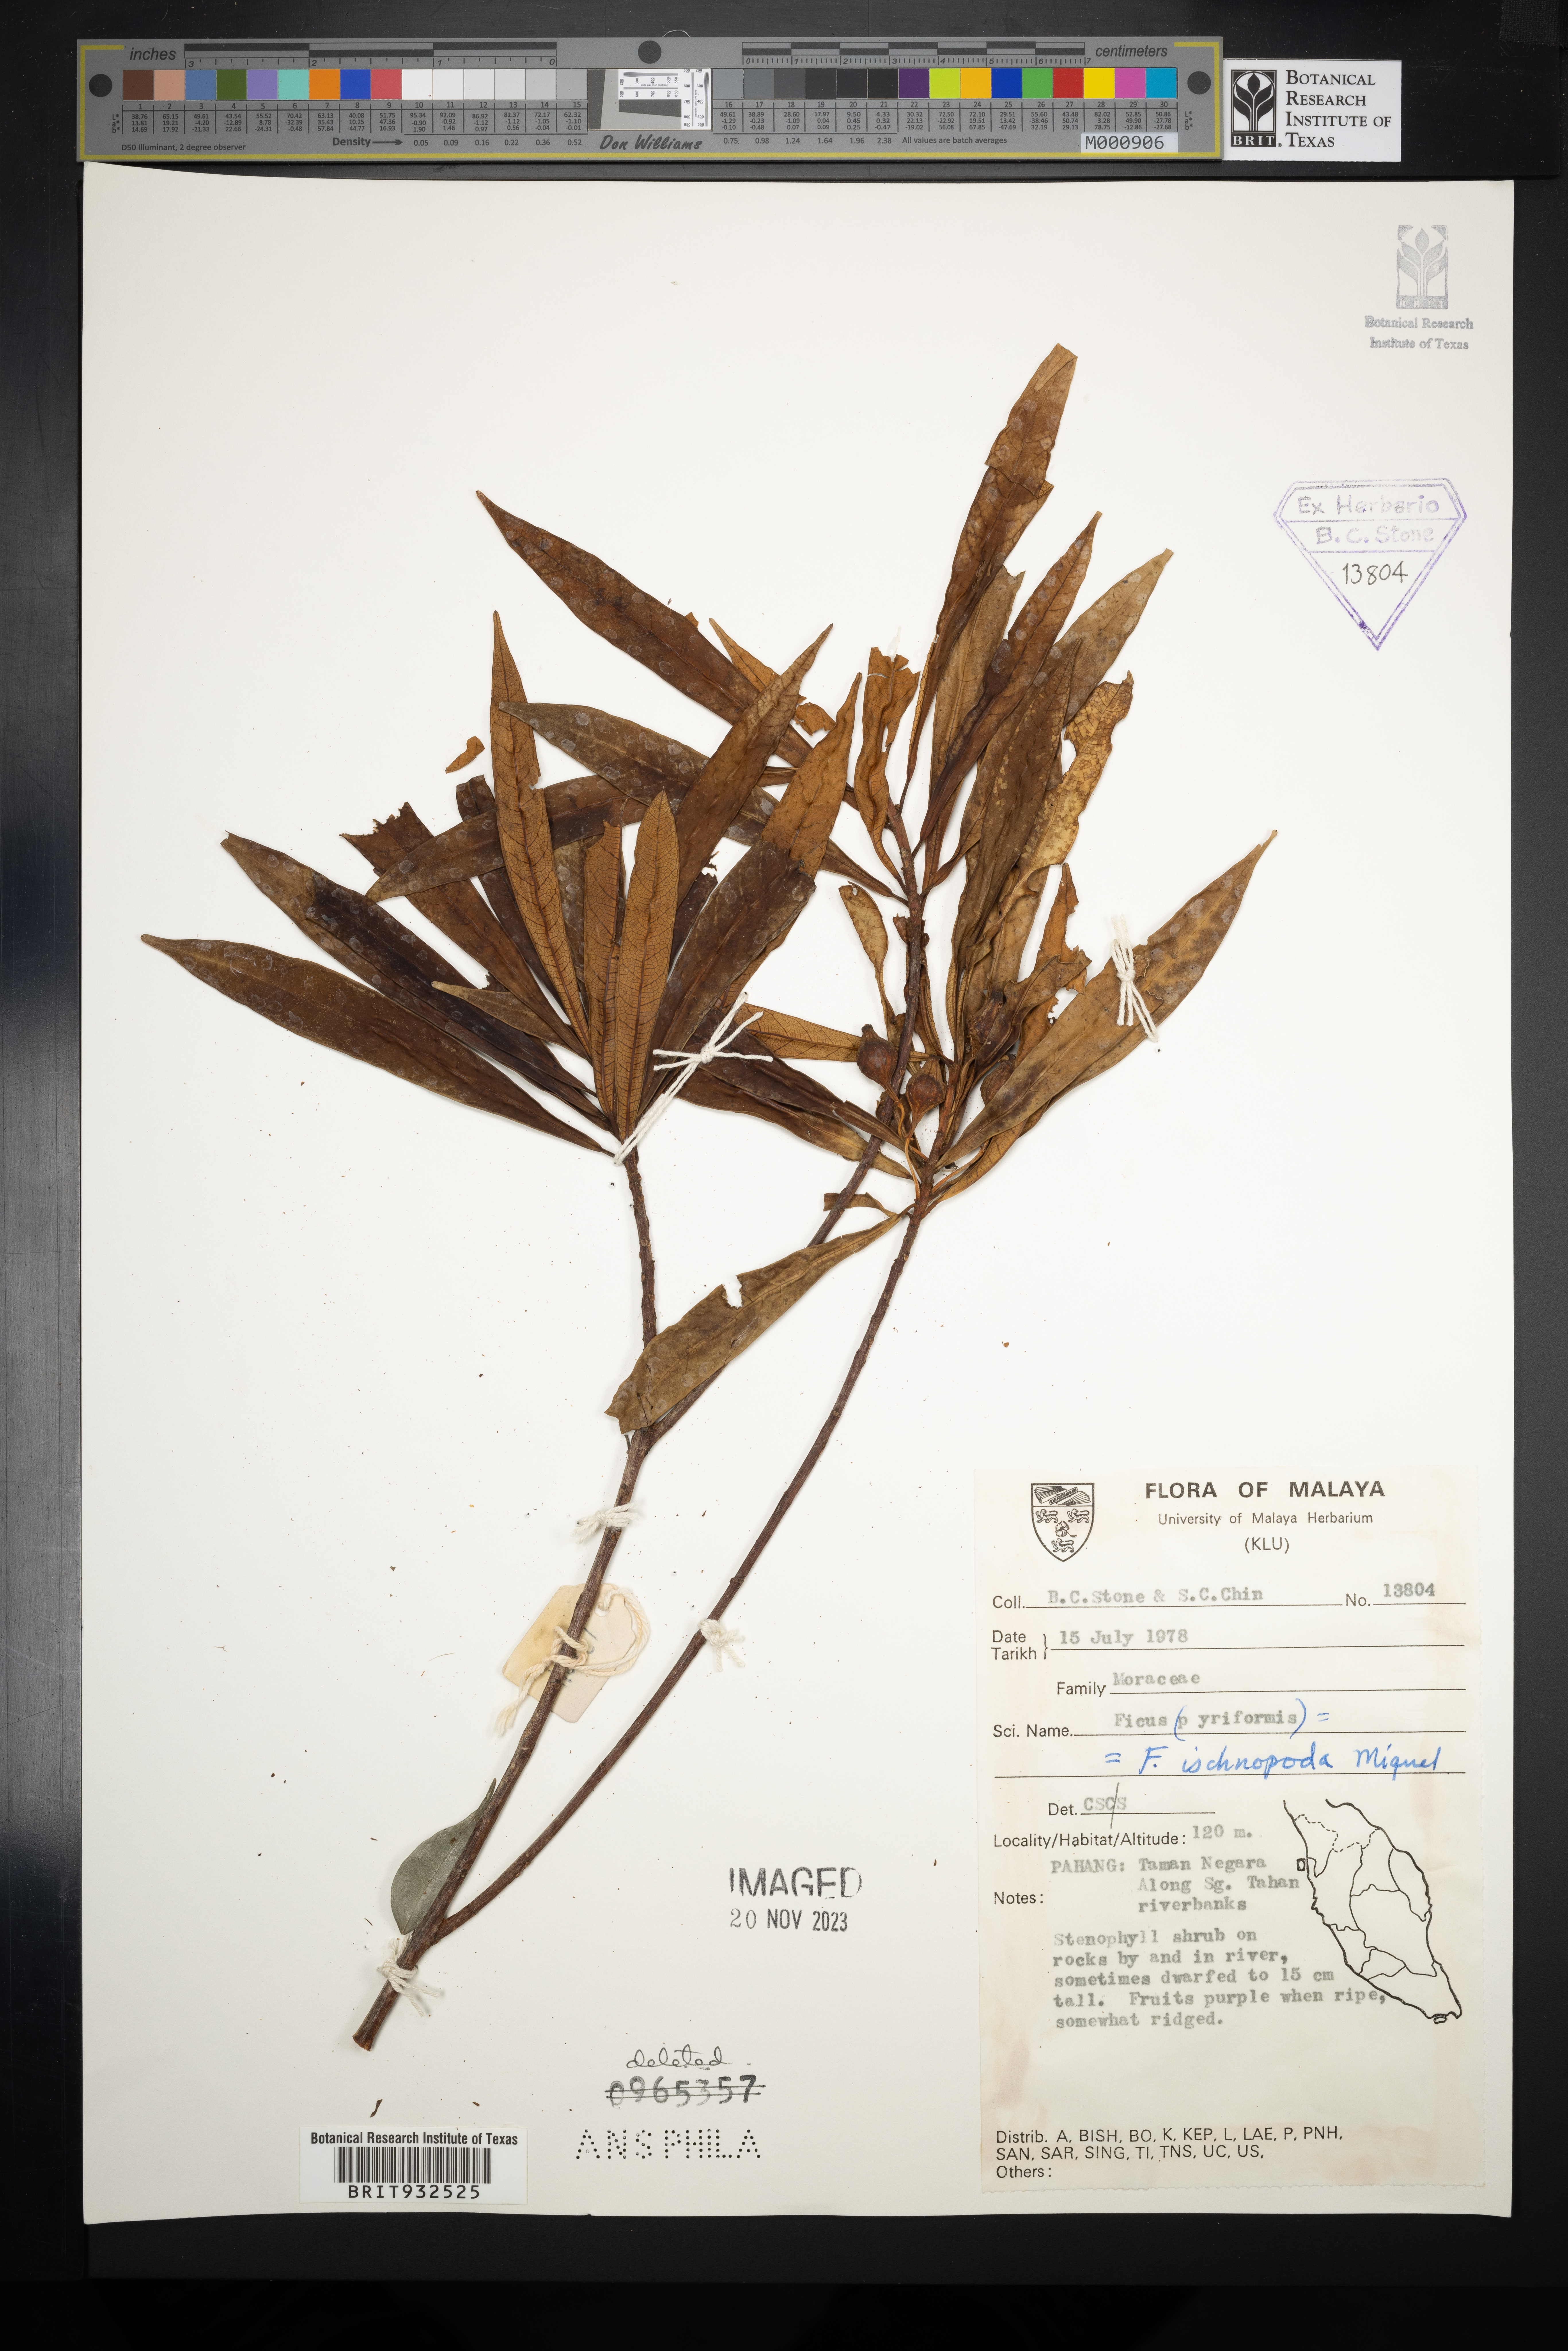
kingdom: Plantae
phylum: Tracheophyta
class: Magnoliopsida
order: Rosales
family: Moraceae
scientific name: Moraceae
